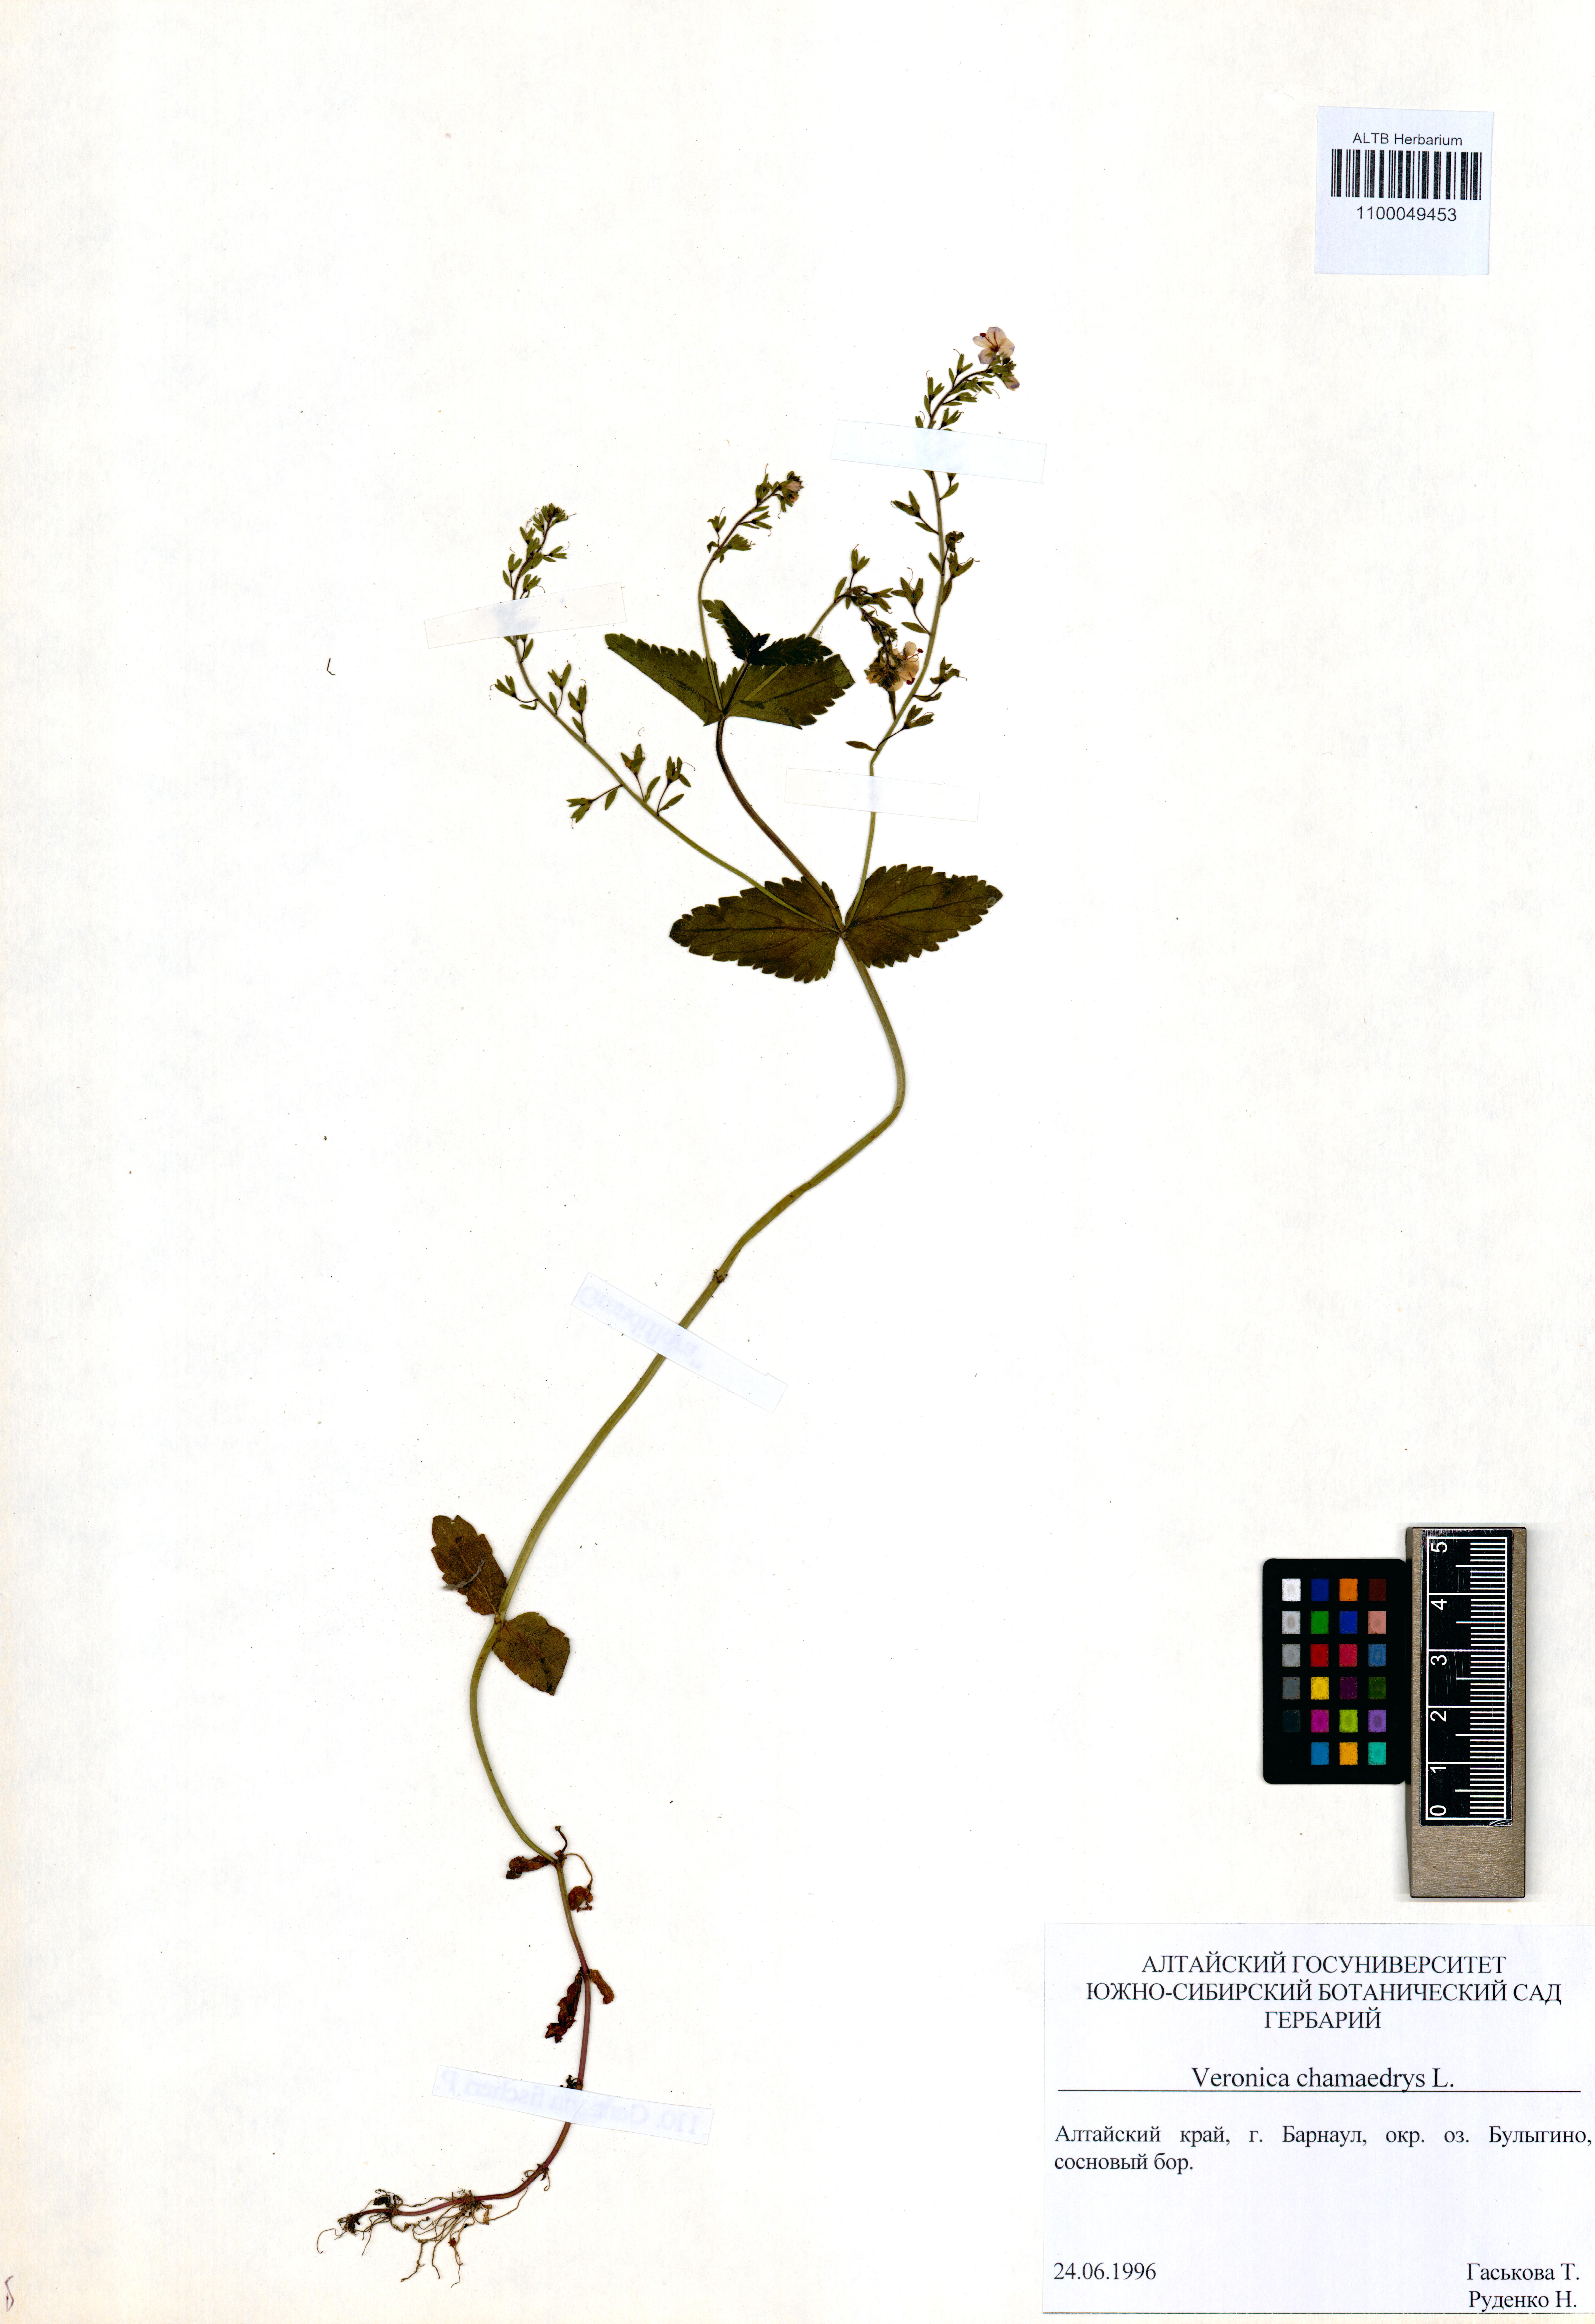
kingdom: Plantae
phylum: Tracheophyta
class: Magnoliopsida
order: Lamiales
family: Plantaginaceae
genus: Veronica
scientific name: Veronica chamaedrys
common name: Germander speedwell
